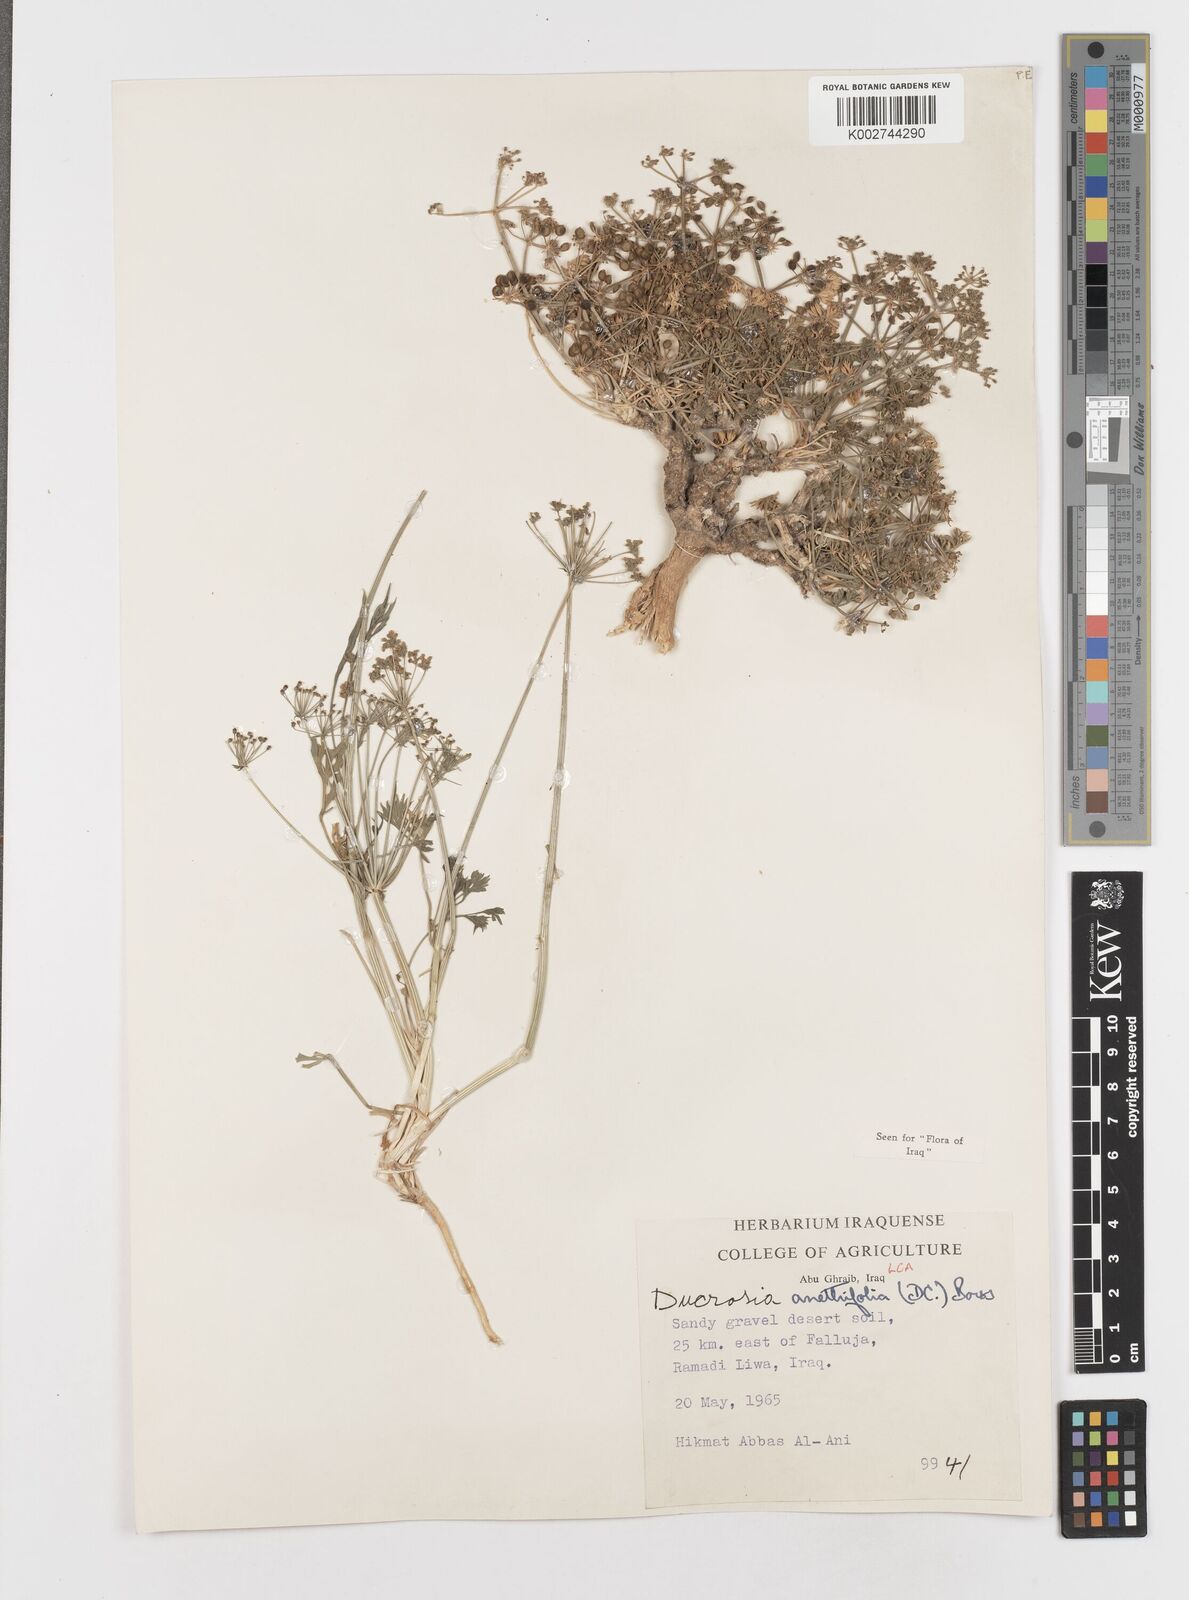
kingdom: Plantae
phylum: Tracheophyta
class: Magnoliopsida
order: Apiales
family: Apiaceae
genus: Ducrosia
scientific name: Ducrosia anethifolia
